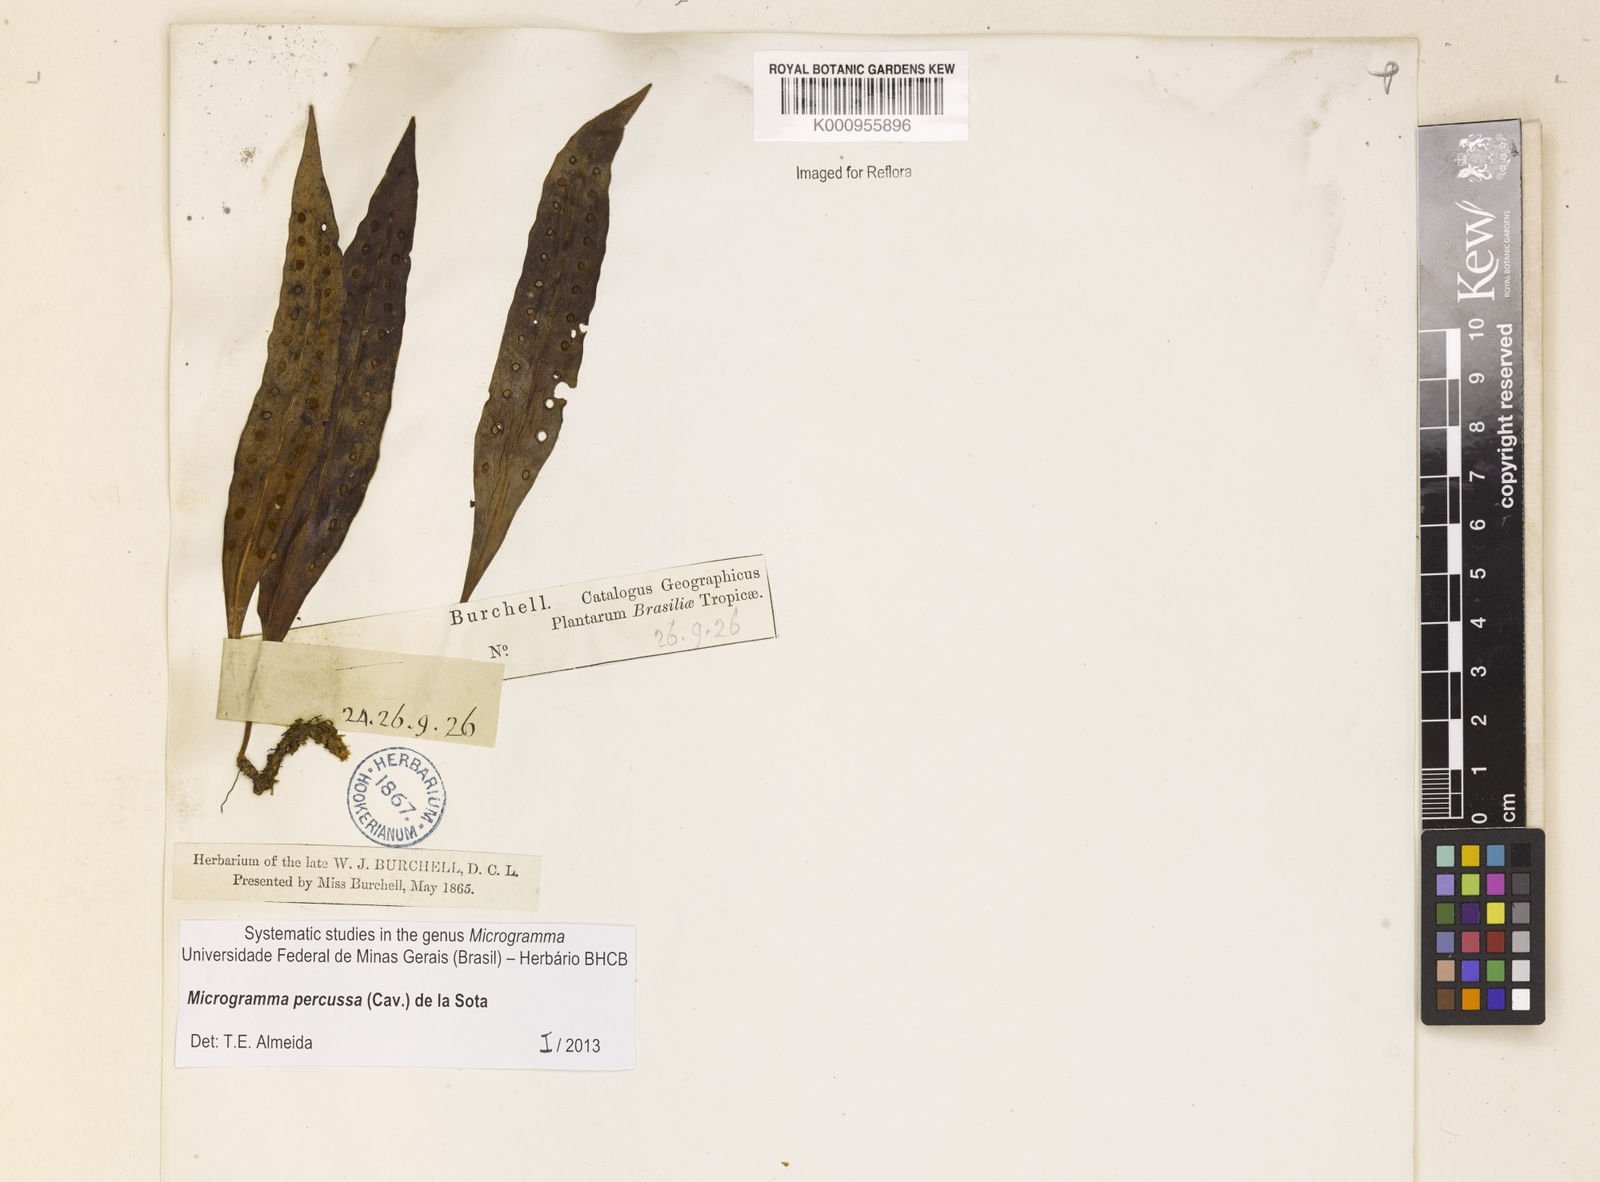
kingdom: Plantae
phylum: Tracheophyta
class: Polypodiopsida
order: Polypodiales
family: Polypodiaceae
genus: Microgramma
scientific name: Microgramma percussa
